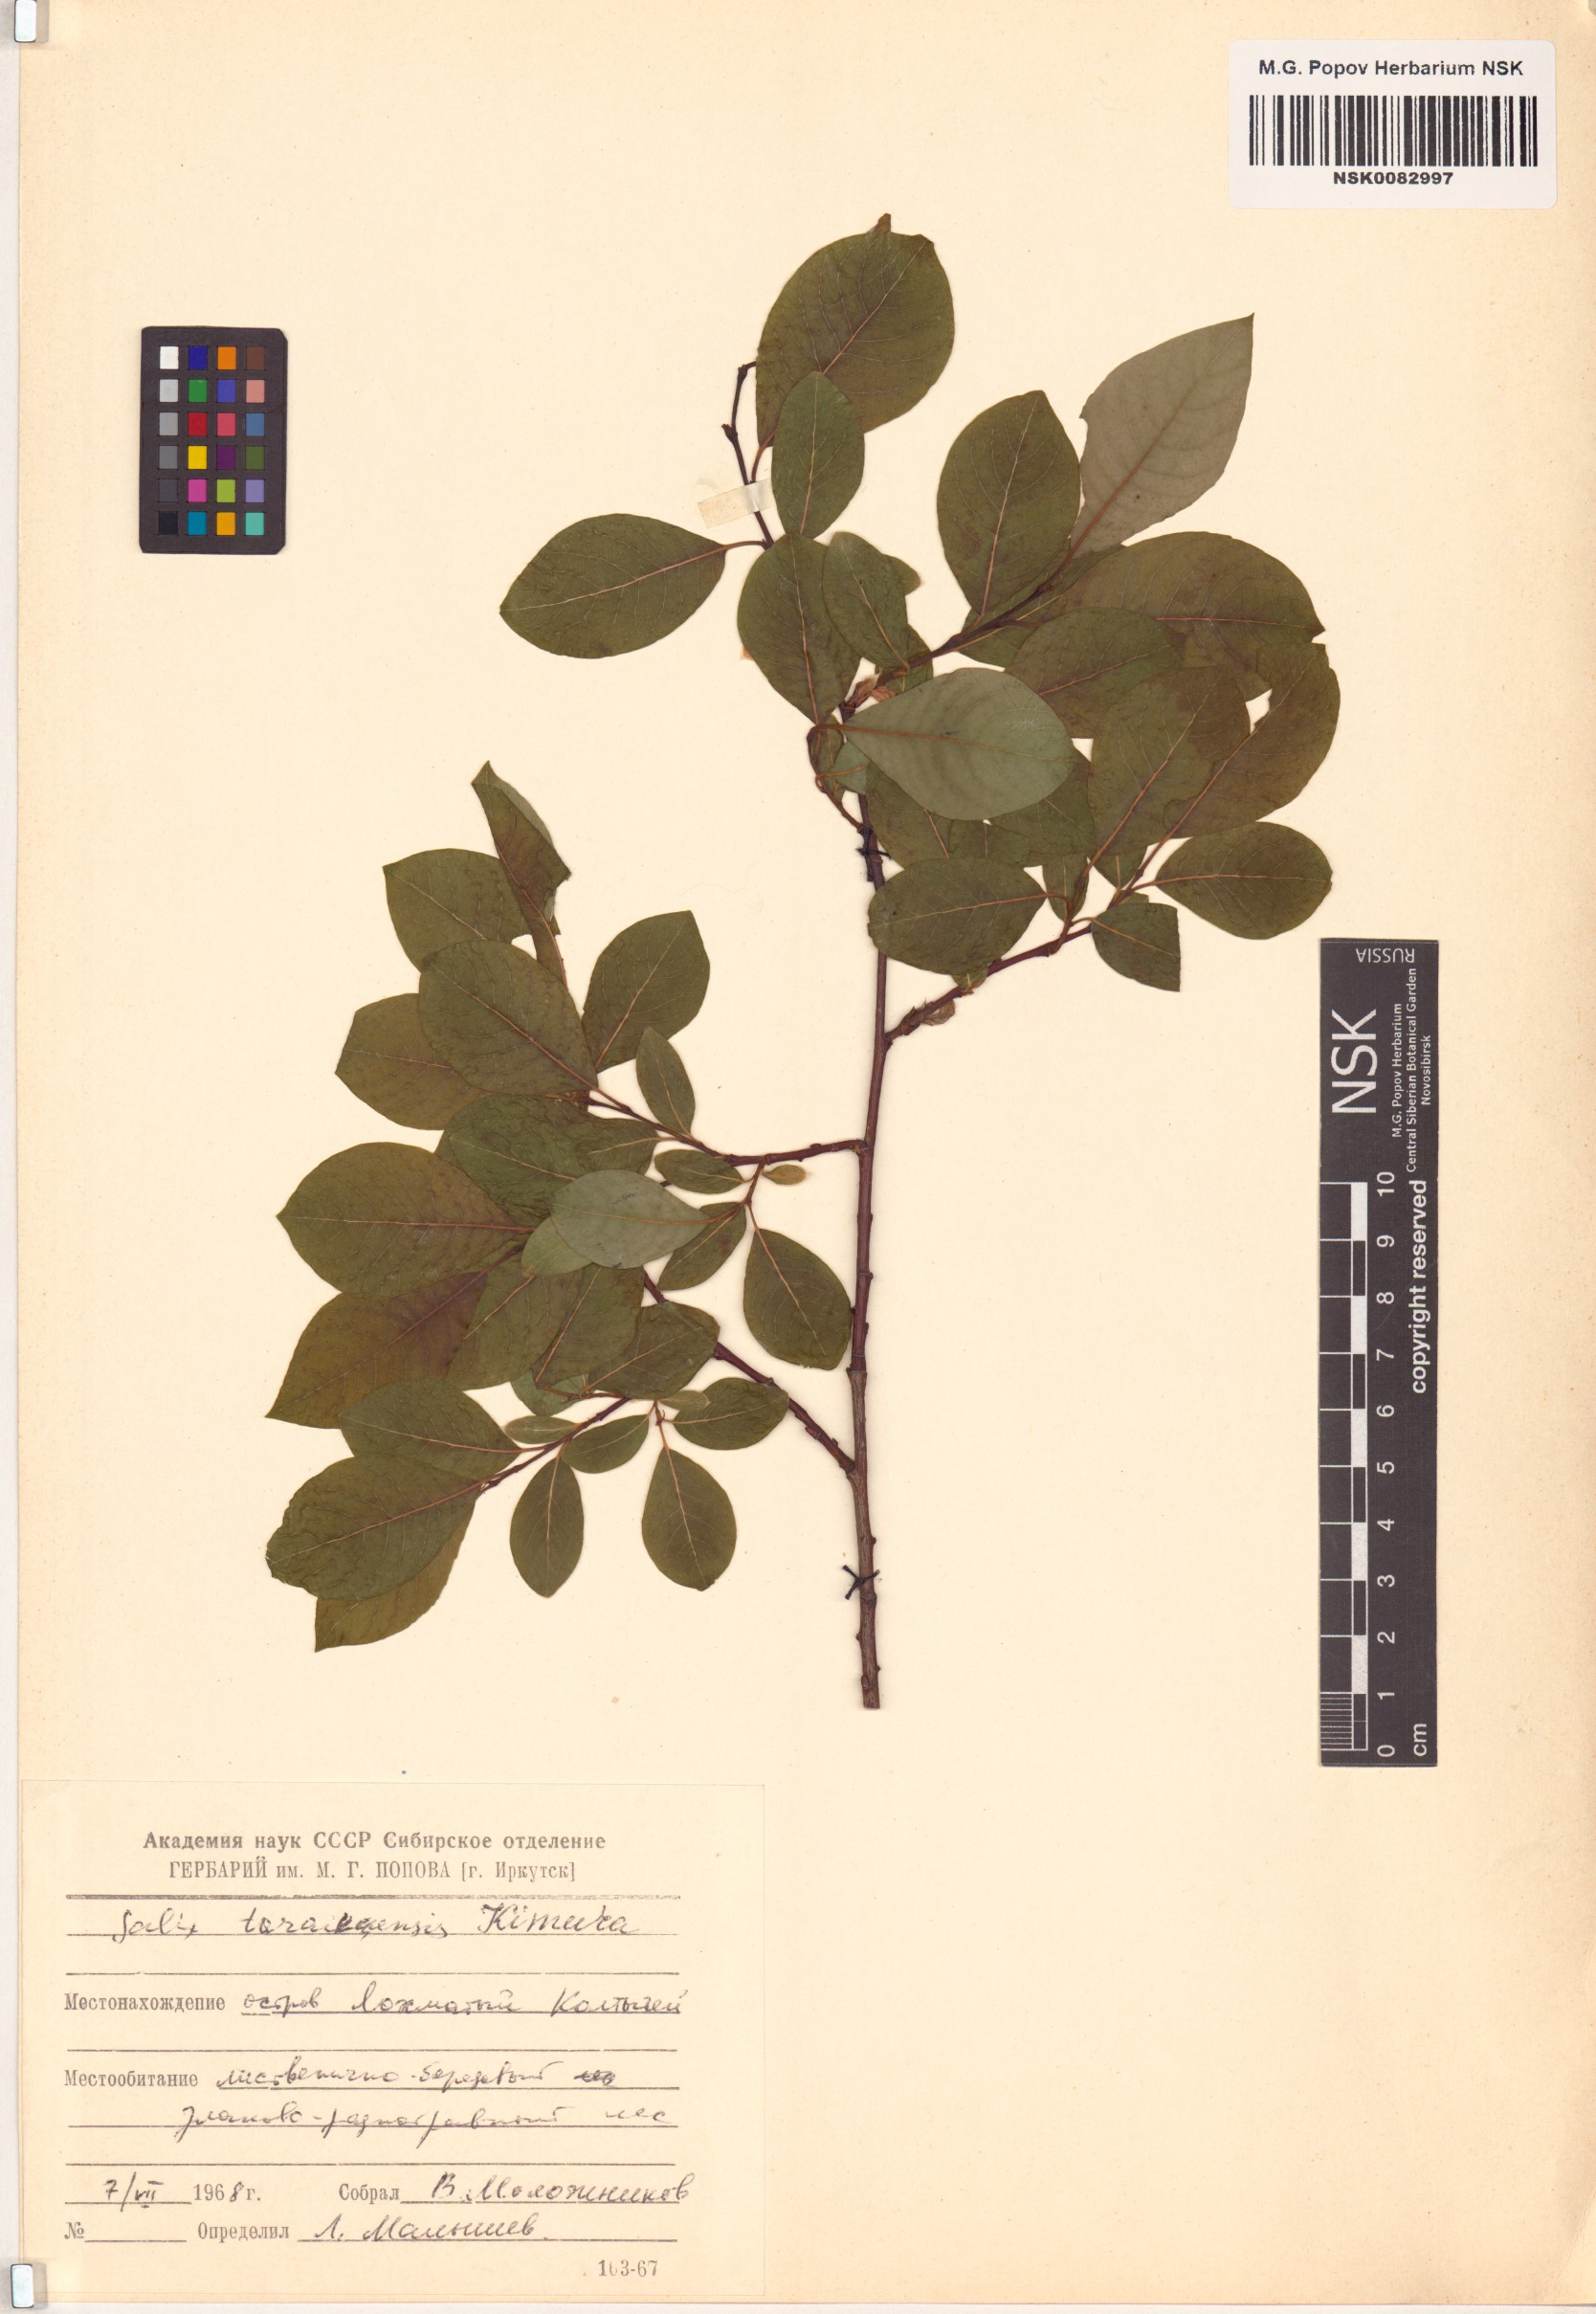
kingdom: Plantae
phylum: Tracheophyta
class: Magnoliopsida
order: Malpighiales
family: Salicaceae
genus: Salix
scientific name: Salix taraikensis
